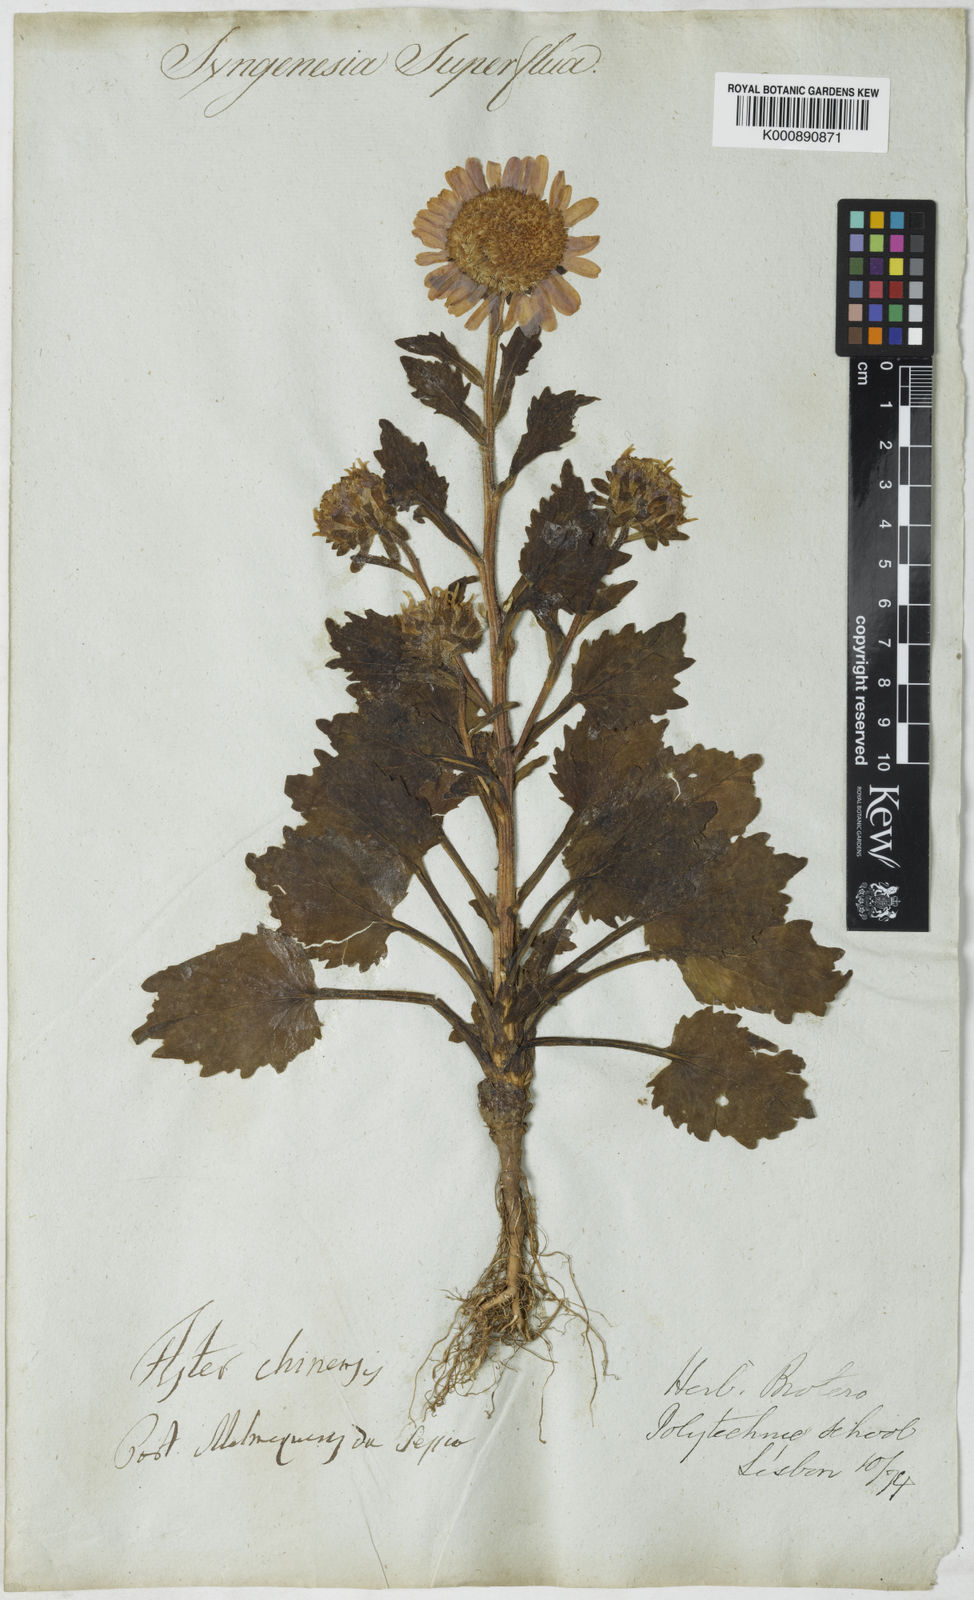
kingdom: Plantae
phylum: Tracheophyta
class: Magnoliopsida
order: Asterales
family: Asteraceae
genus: Callistephus
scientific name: Callistephus chinensis
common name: China aster
